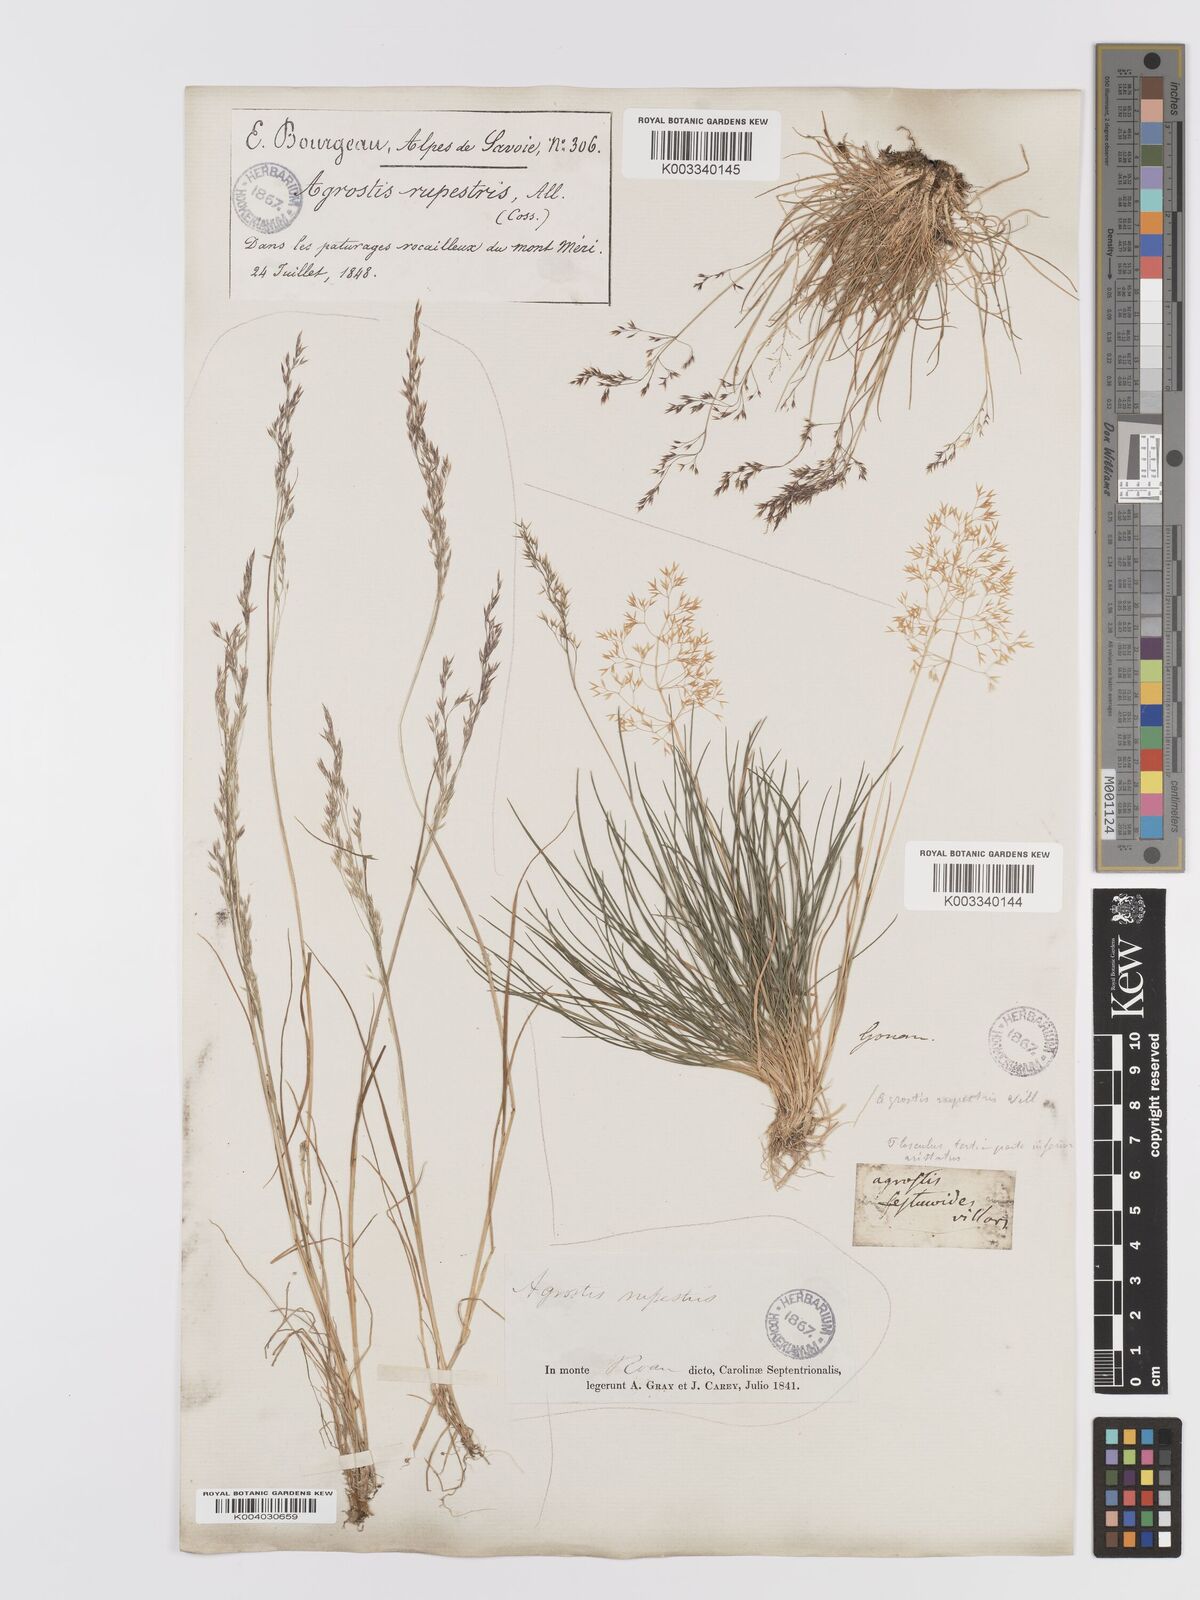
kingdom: Plantae
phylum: Tracheophyta
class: Liliopsida
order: Poales
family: Poaceae
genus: Agrostis
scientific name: Agrostis rupestris
